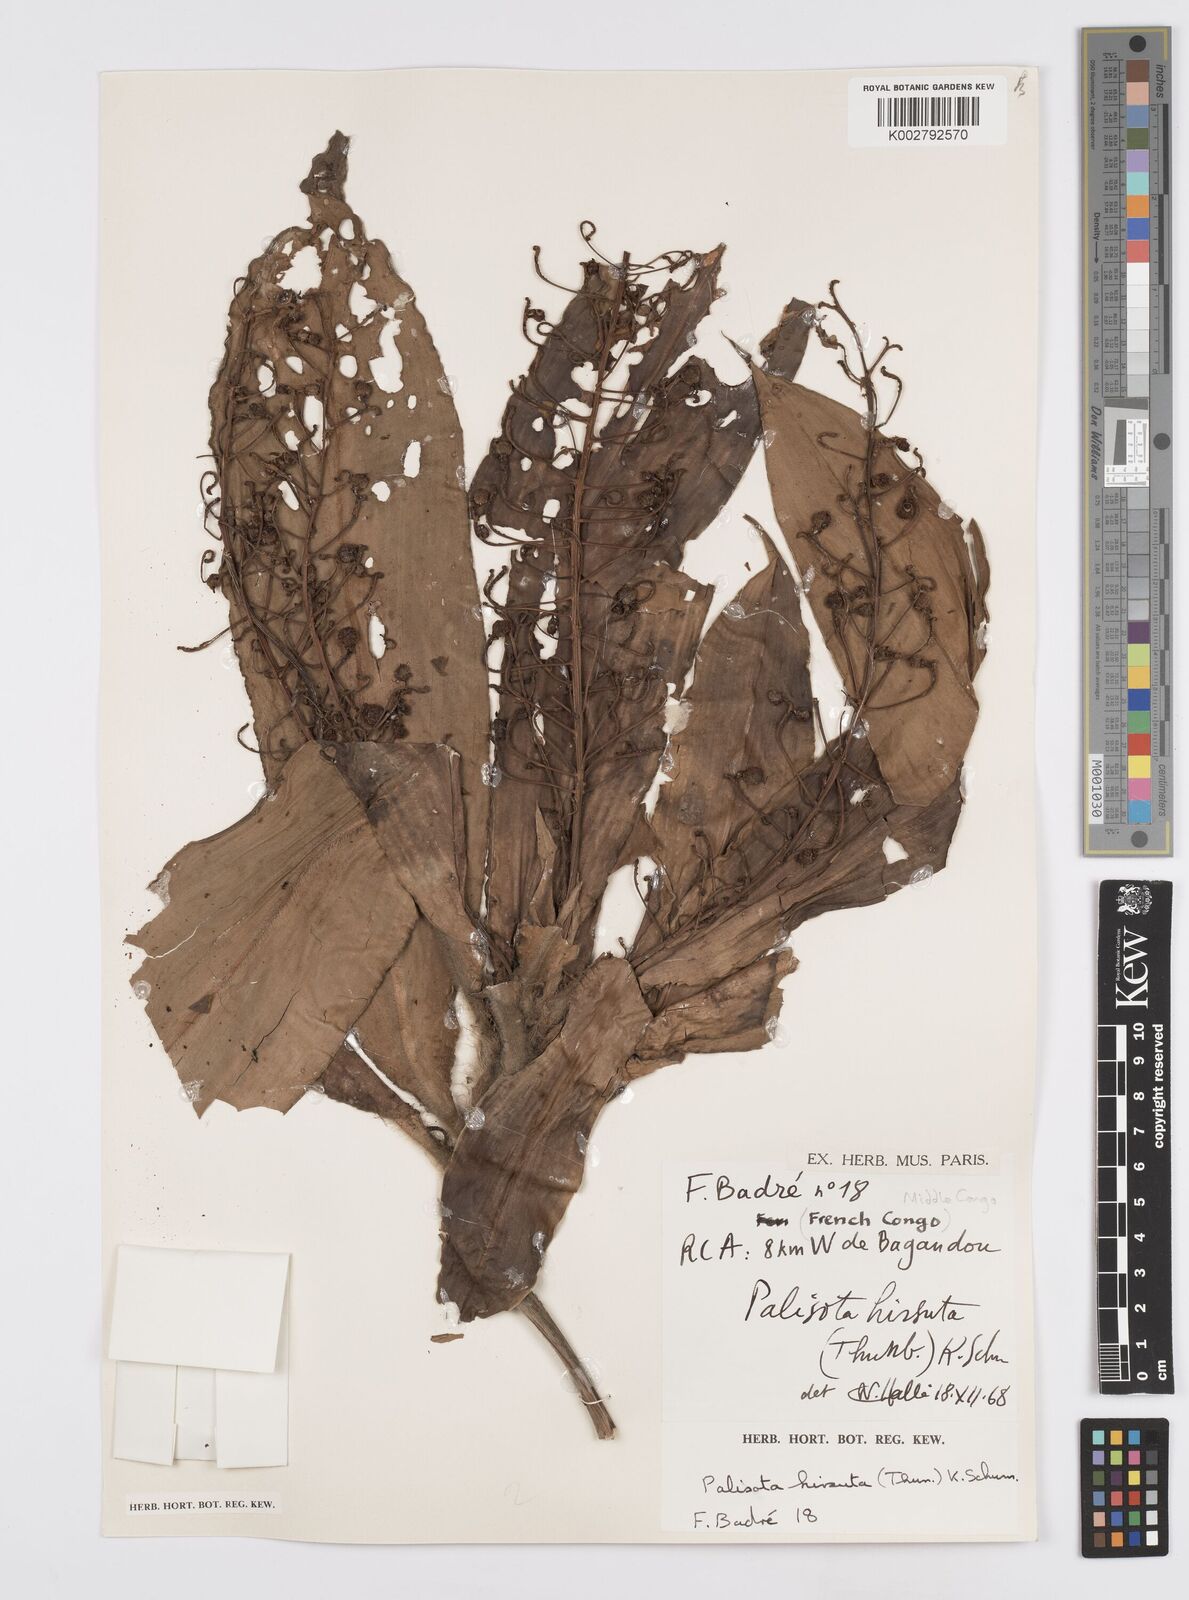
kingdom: Plantae
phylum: Tracheophyta
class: Liliopsida
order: Commelinales
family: Commelinaceae
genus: Palisota
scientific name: Palisota hirsuta
